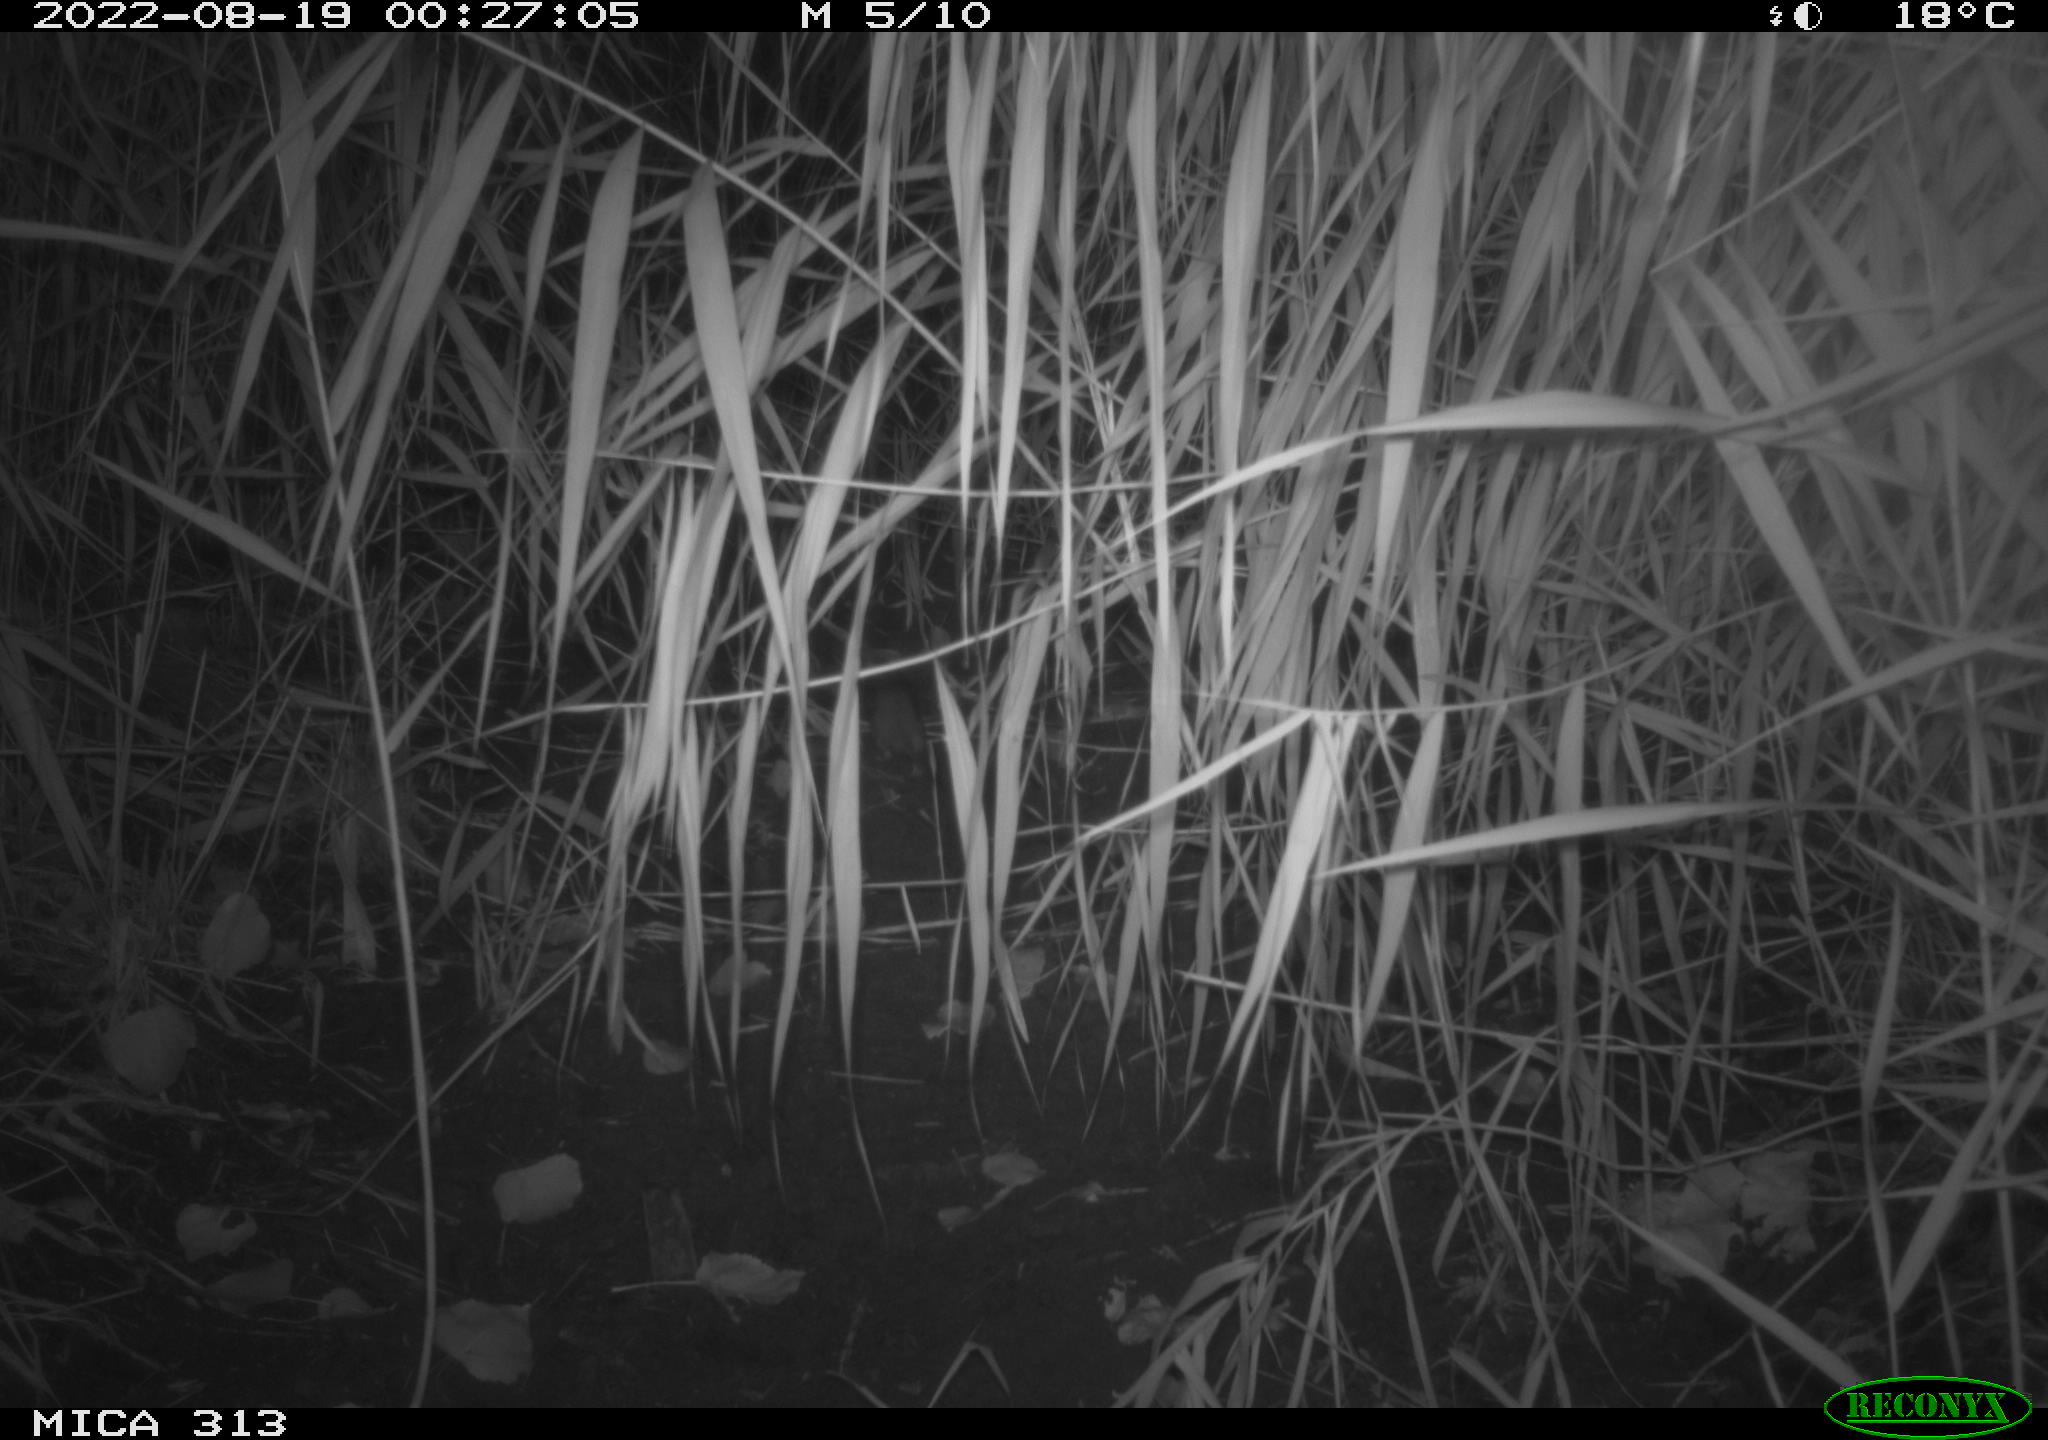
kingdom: Animalia
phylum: Chordata
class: Mammalia
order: Rodentia
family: Muridae
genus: Rattus
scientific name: Rattus norvegicus
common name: Brown rat
